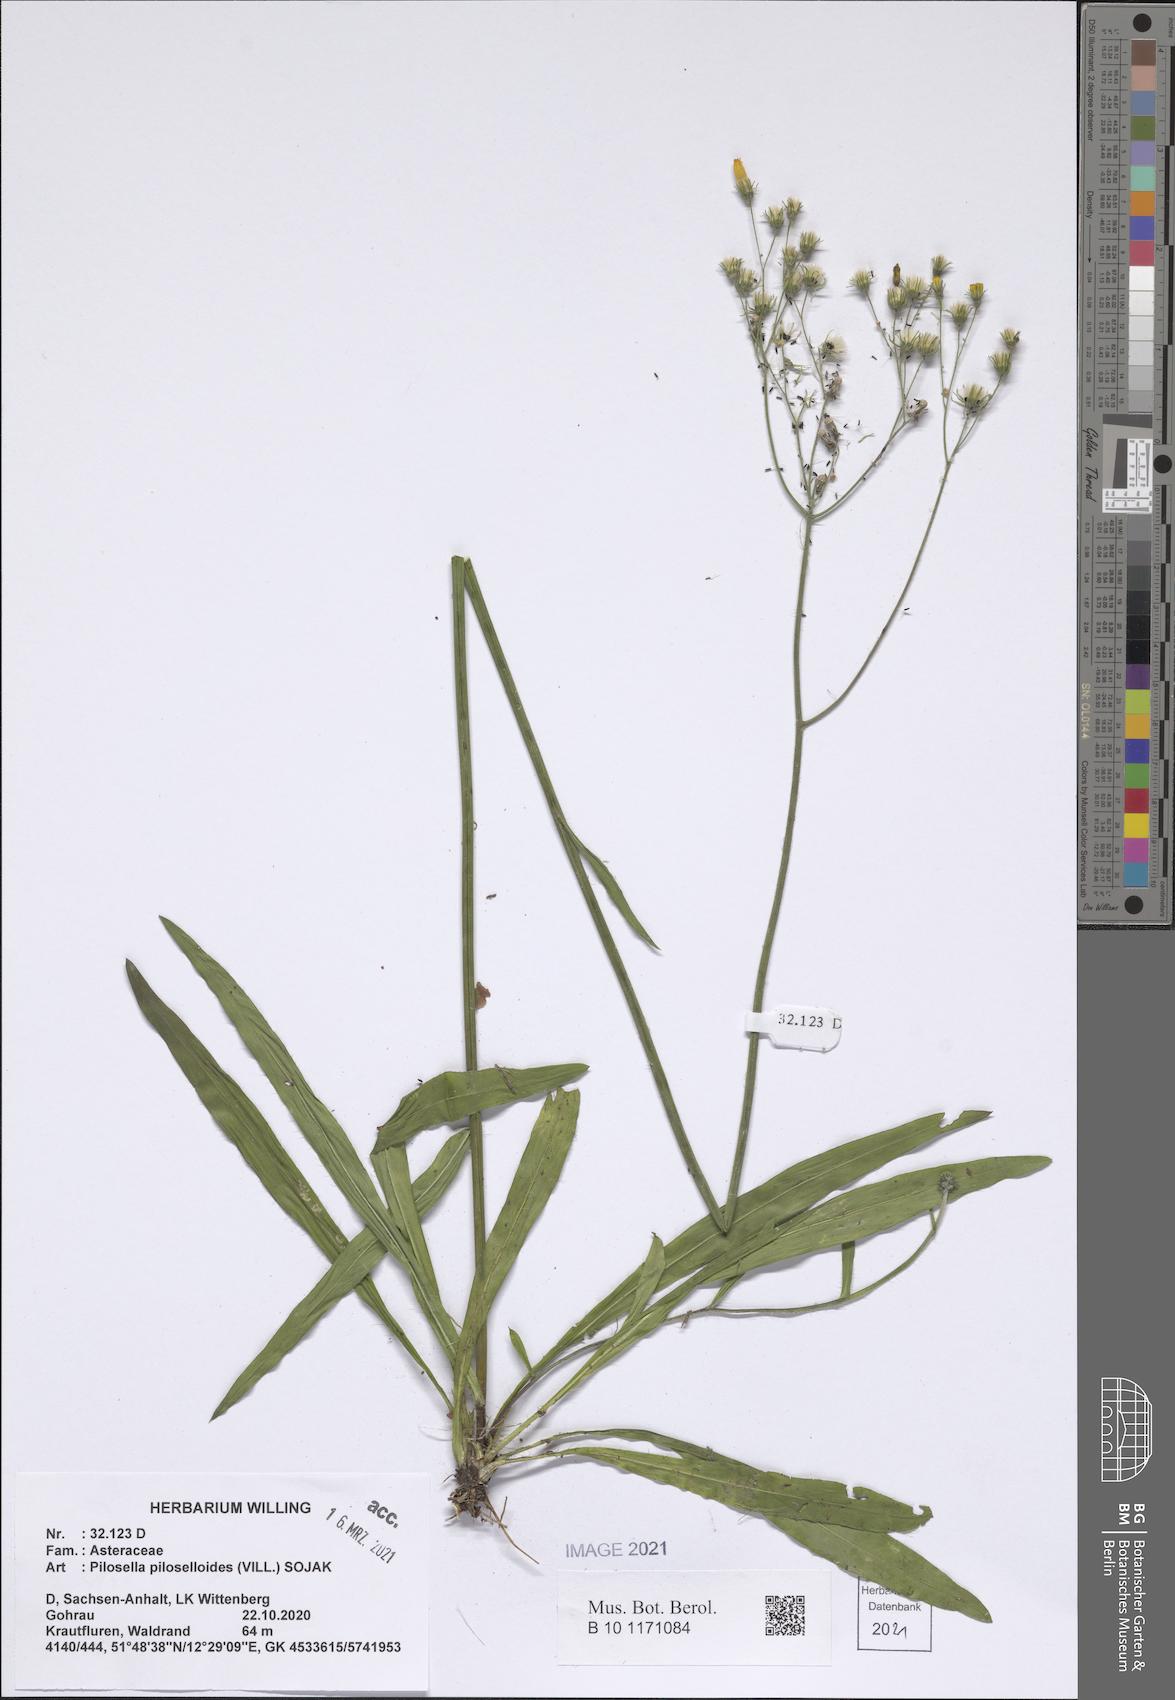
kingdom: Plantae
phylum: Tracheophyta
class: Magnoliopsida
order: Asterales
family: Asteraceae
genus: Pilosella
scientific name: Pilosella piloselloides
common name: Glaucous king-devil
